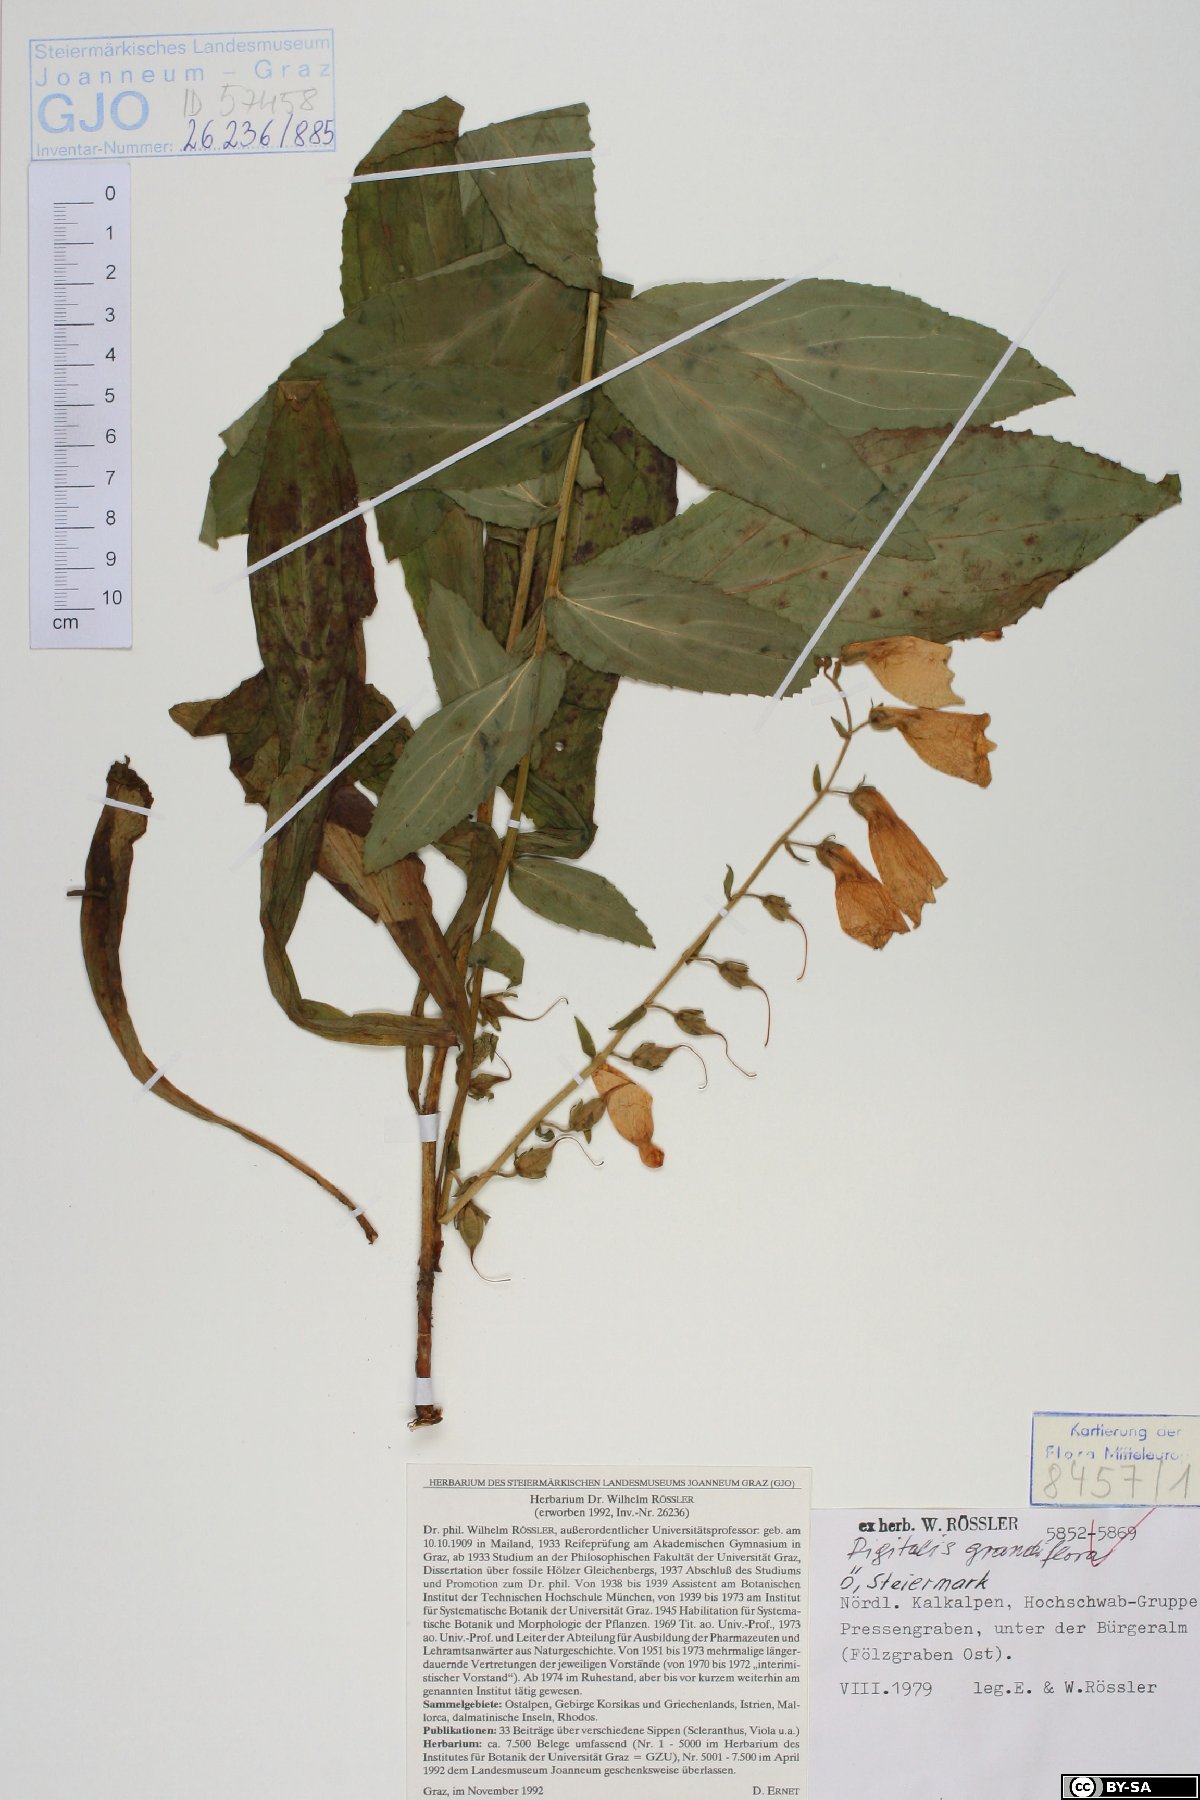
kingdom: Plantae
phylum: Tracheophyta
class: Magnoliopsida
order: Lamiales
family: Plantaginaceae
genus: Digitalis
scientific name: Digitalis grandiflora
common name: Yellow foxglove
